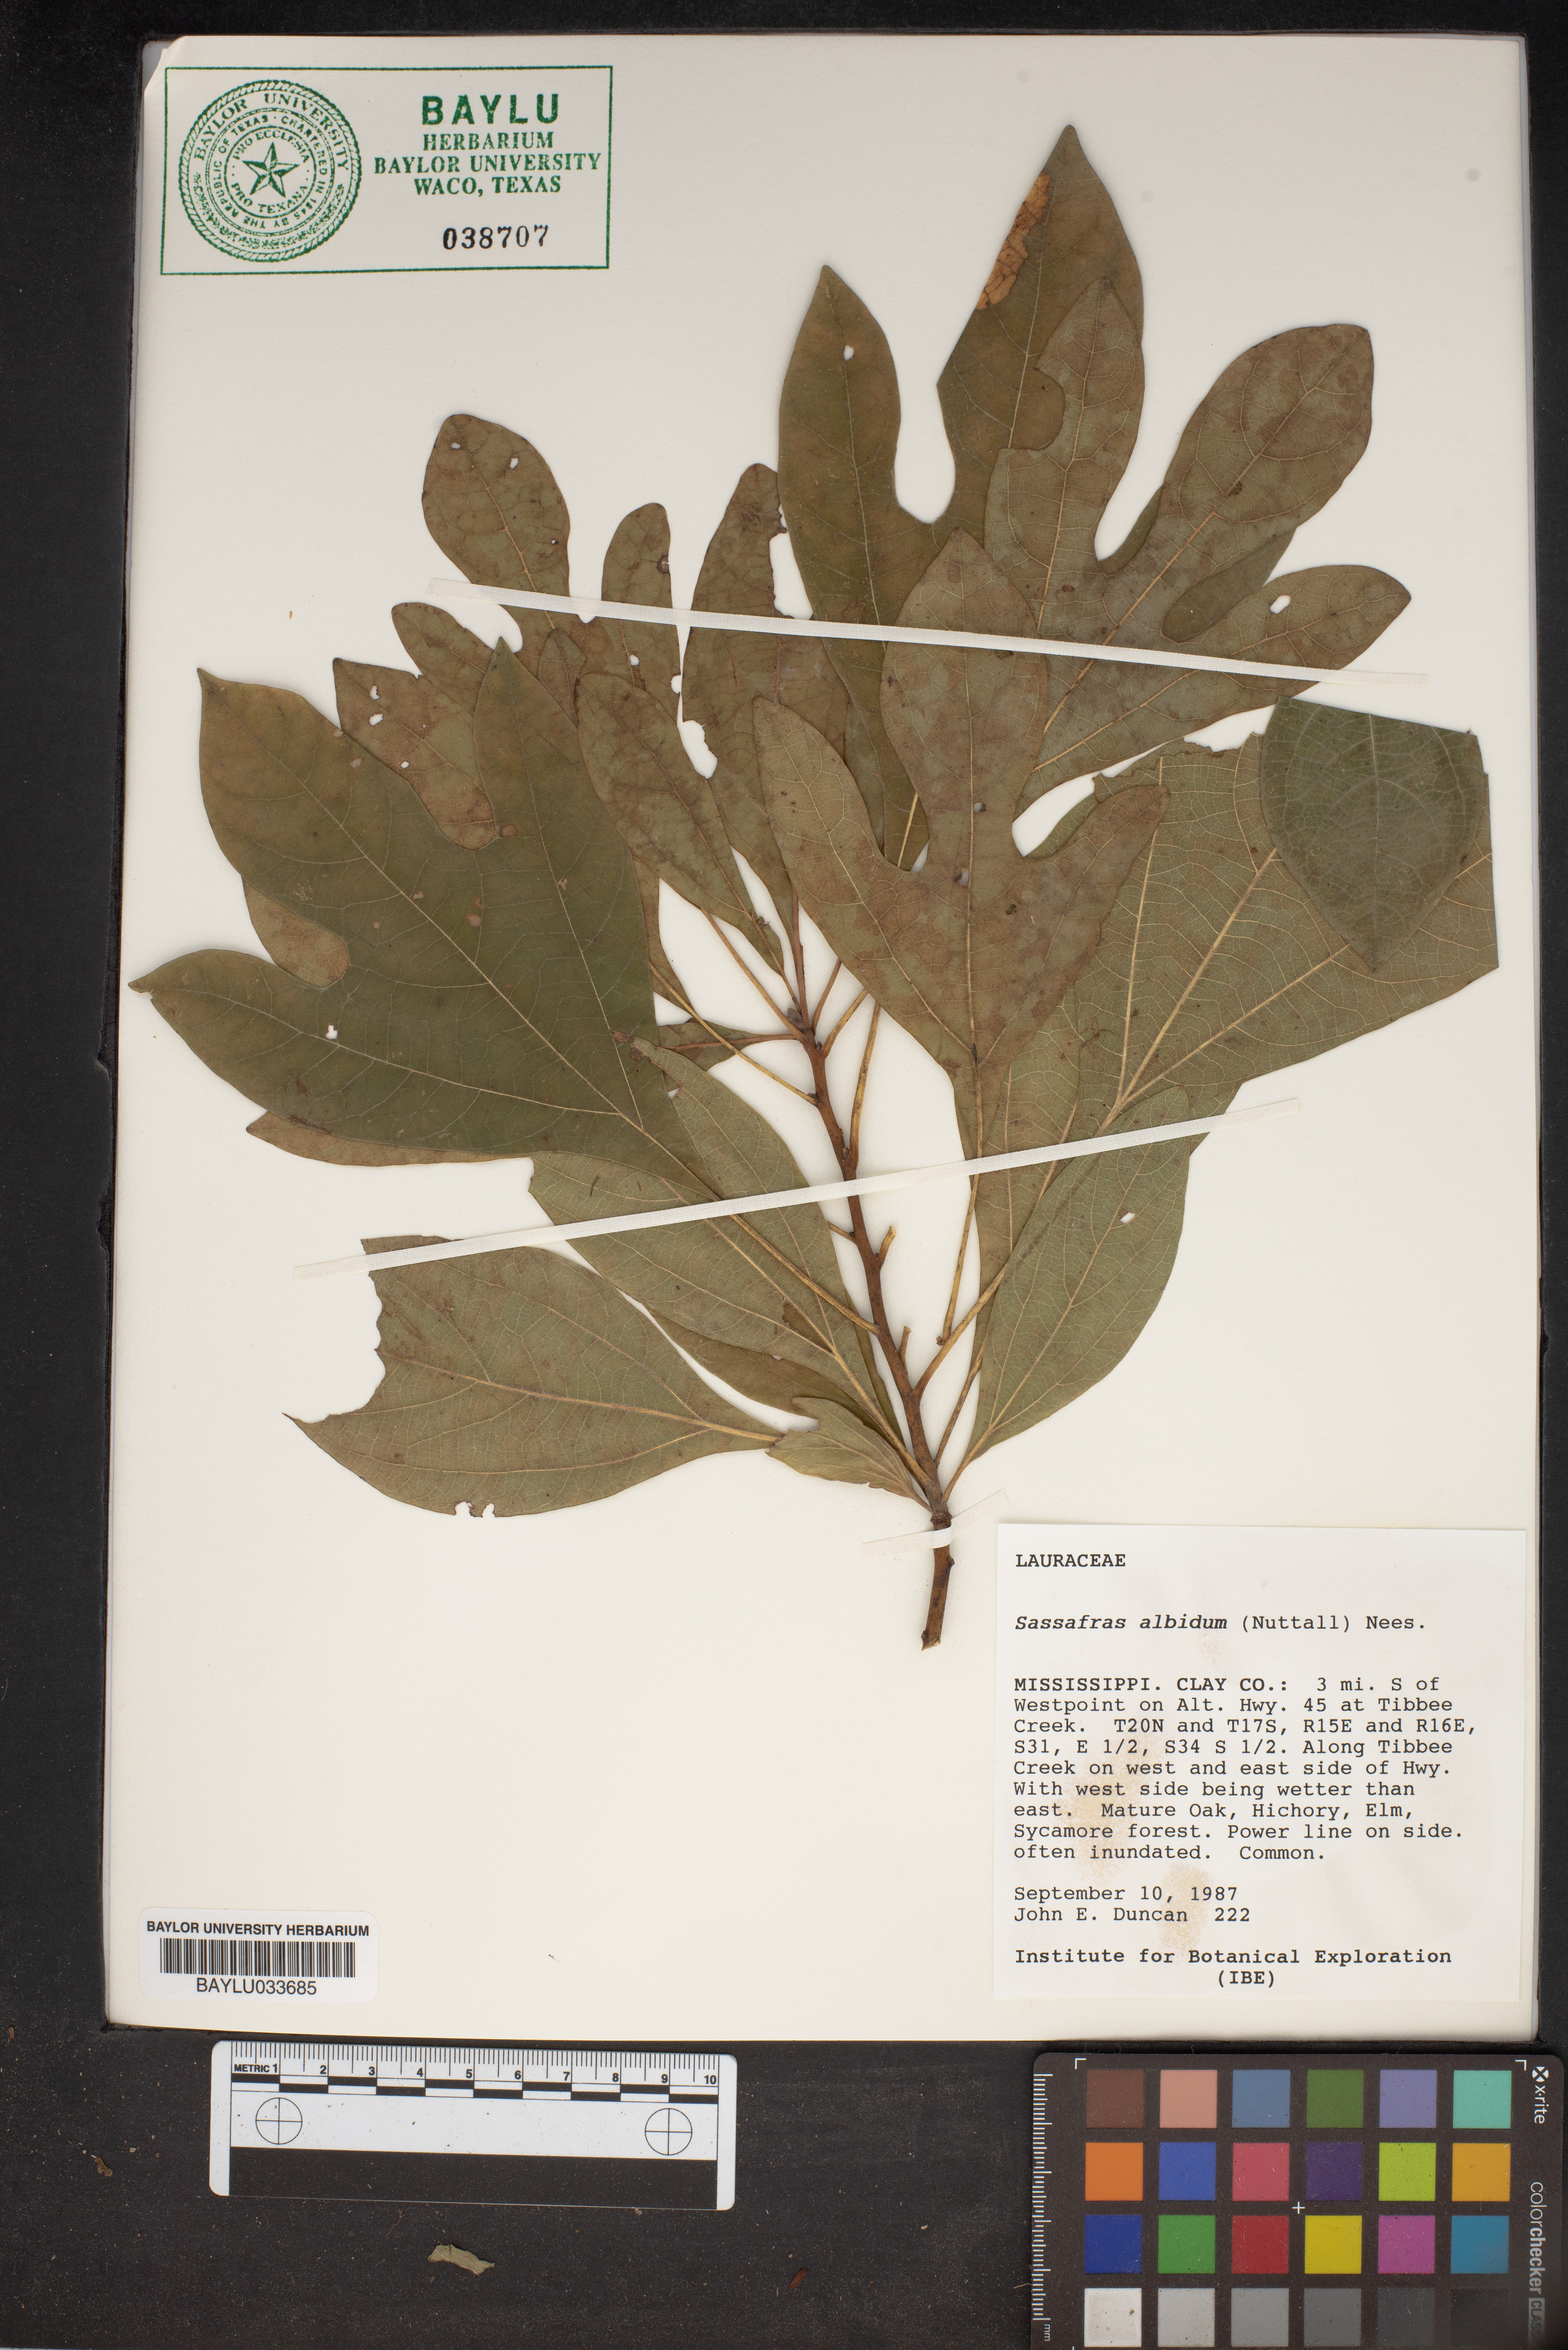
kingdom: Plantae
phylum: Tracheophyta
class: Magnoliopsida
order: Laurales
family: Lauraceae
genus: Sassafras
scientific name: Sassafras albidum
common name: Sassafras
